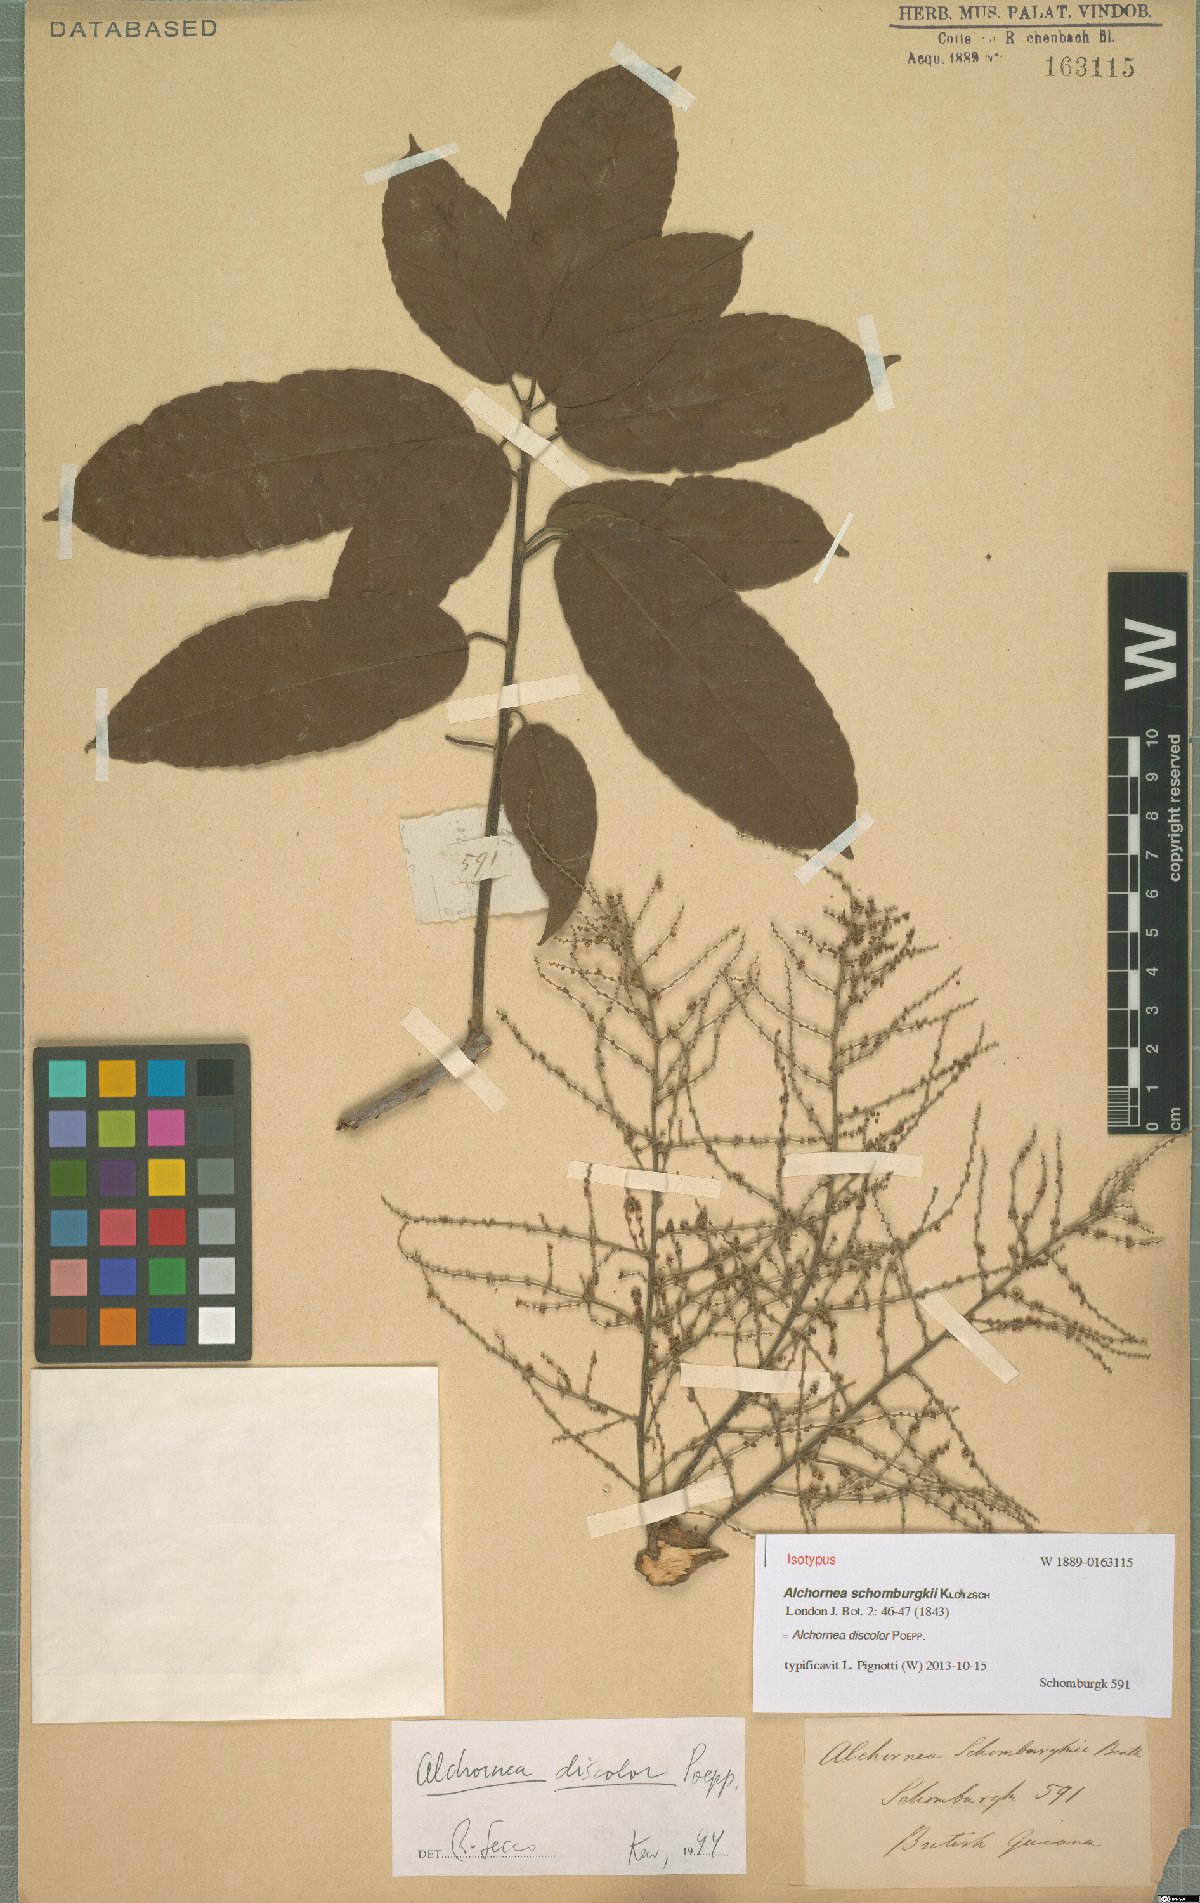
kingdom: Plantae
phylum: Tracheophyta
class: Magnoliopsida
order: Malpighiales
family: Euphorbiaceae
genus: Alchornea
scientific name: Alchornea discolor
